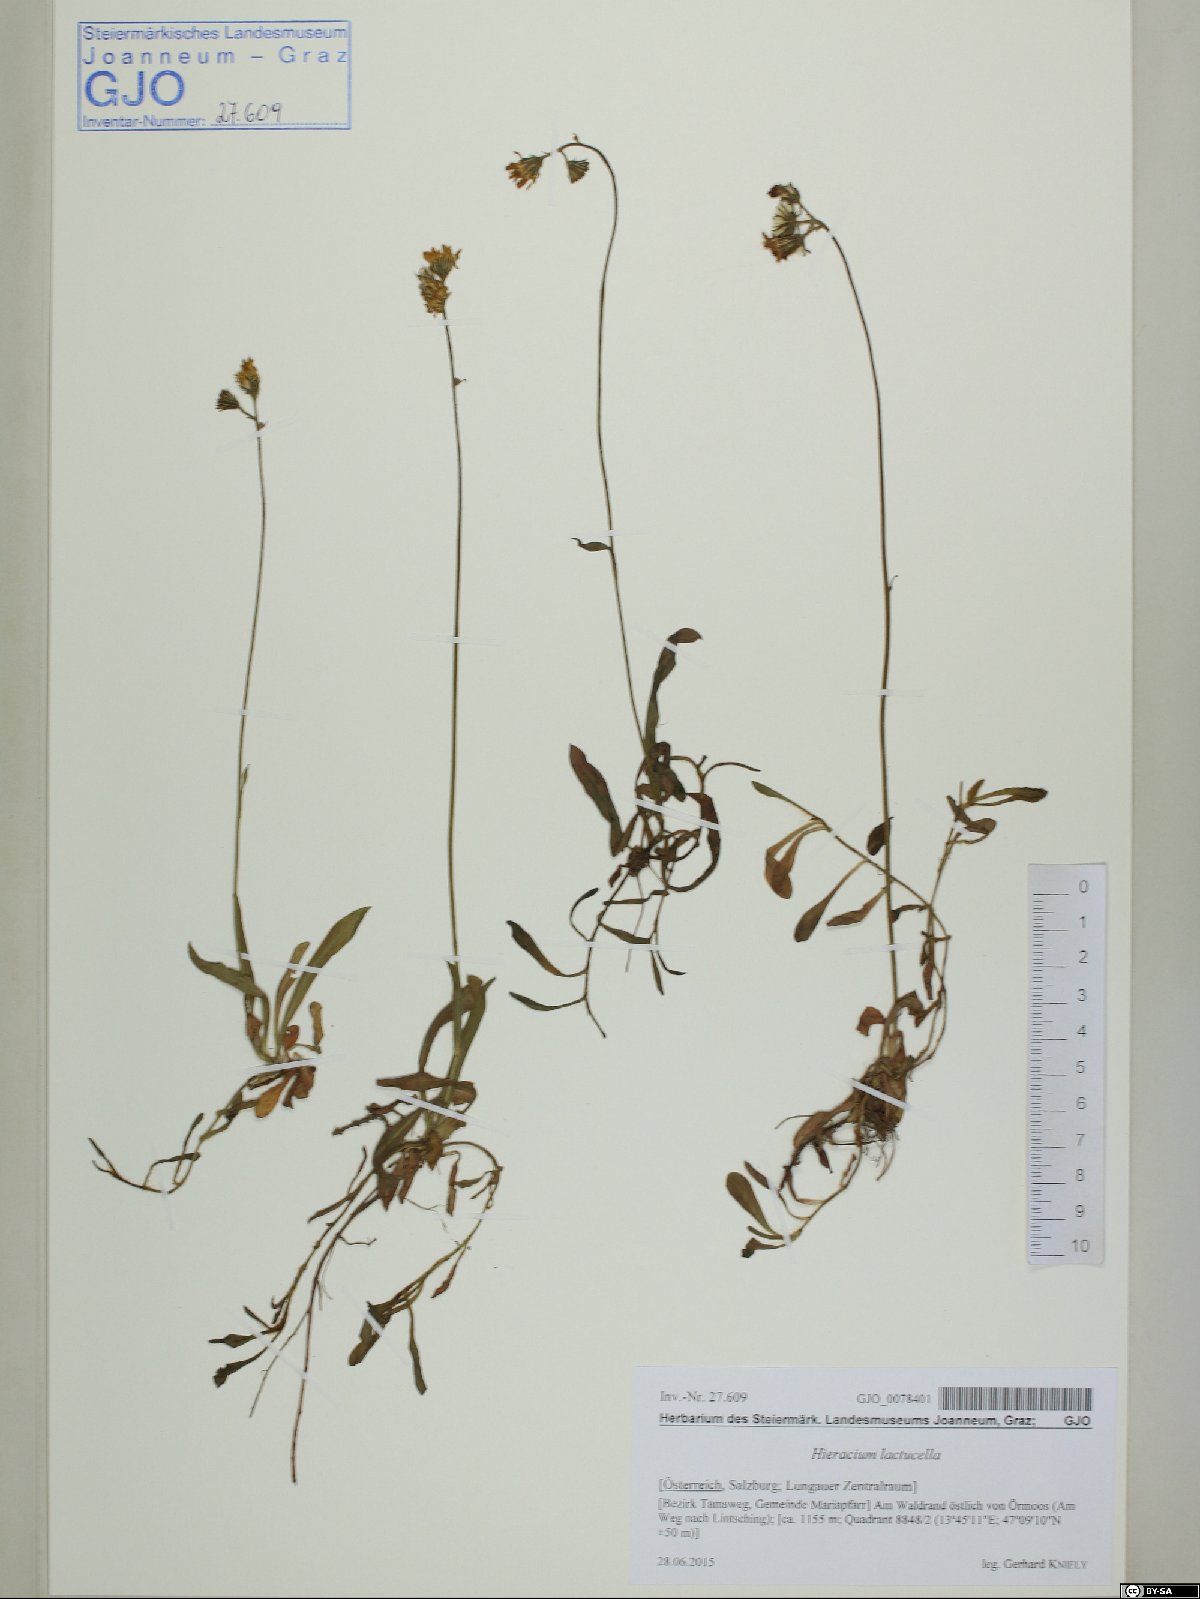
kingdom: Plantae
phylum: Tracheophyta
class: Magnoliopsida
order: Asterales
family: Asteraceae
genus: Pilosella
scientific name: Pilosella lactucella
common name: Glaucous fox-and-cubs
